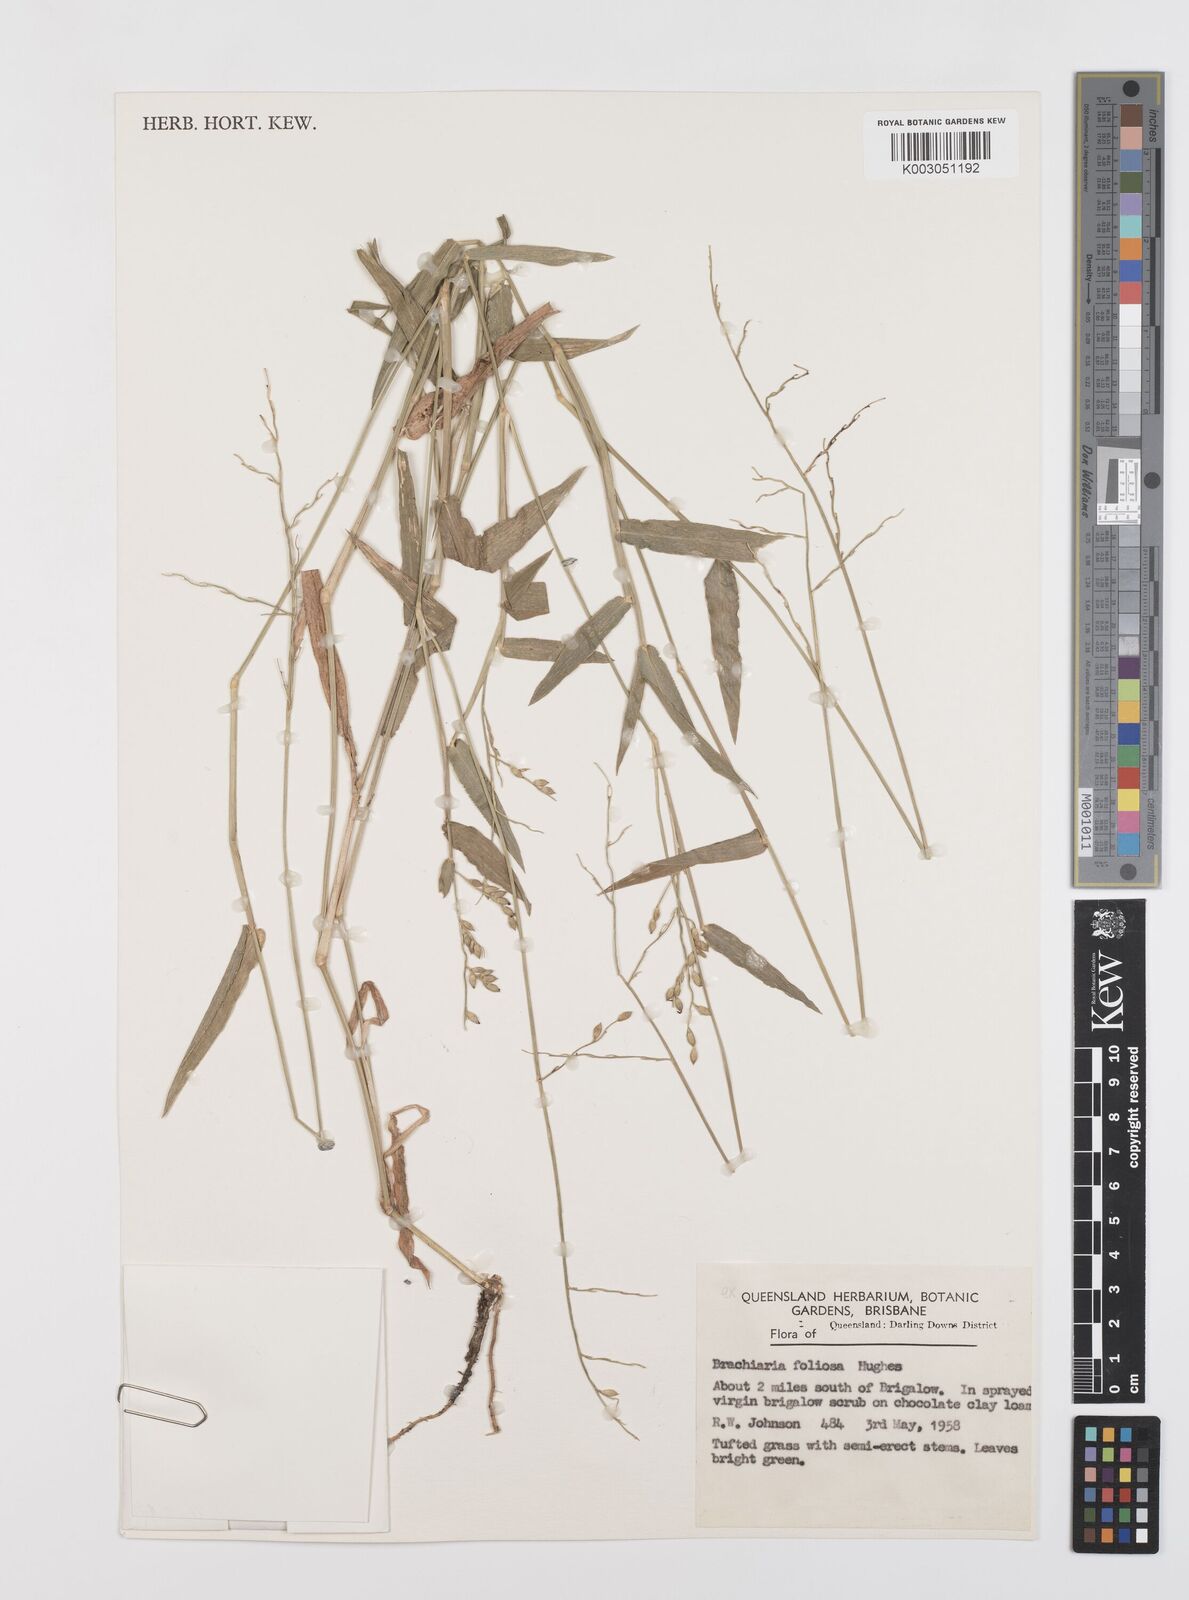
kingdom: Plantae
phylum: Tracheophyta
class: Liliopsida
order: Poales
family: Poaceae
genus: Urochloa
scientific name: Urochloa foliosa
